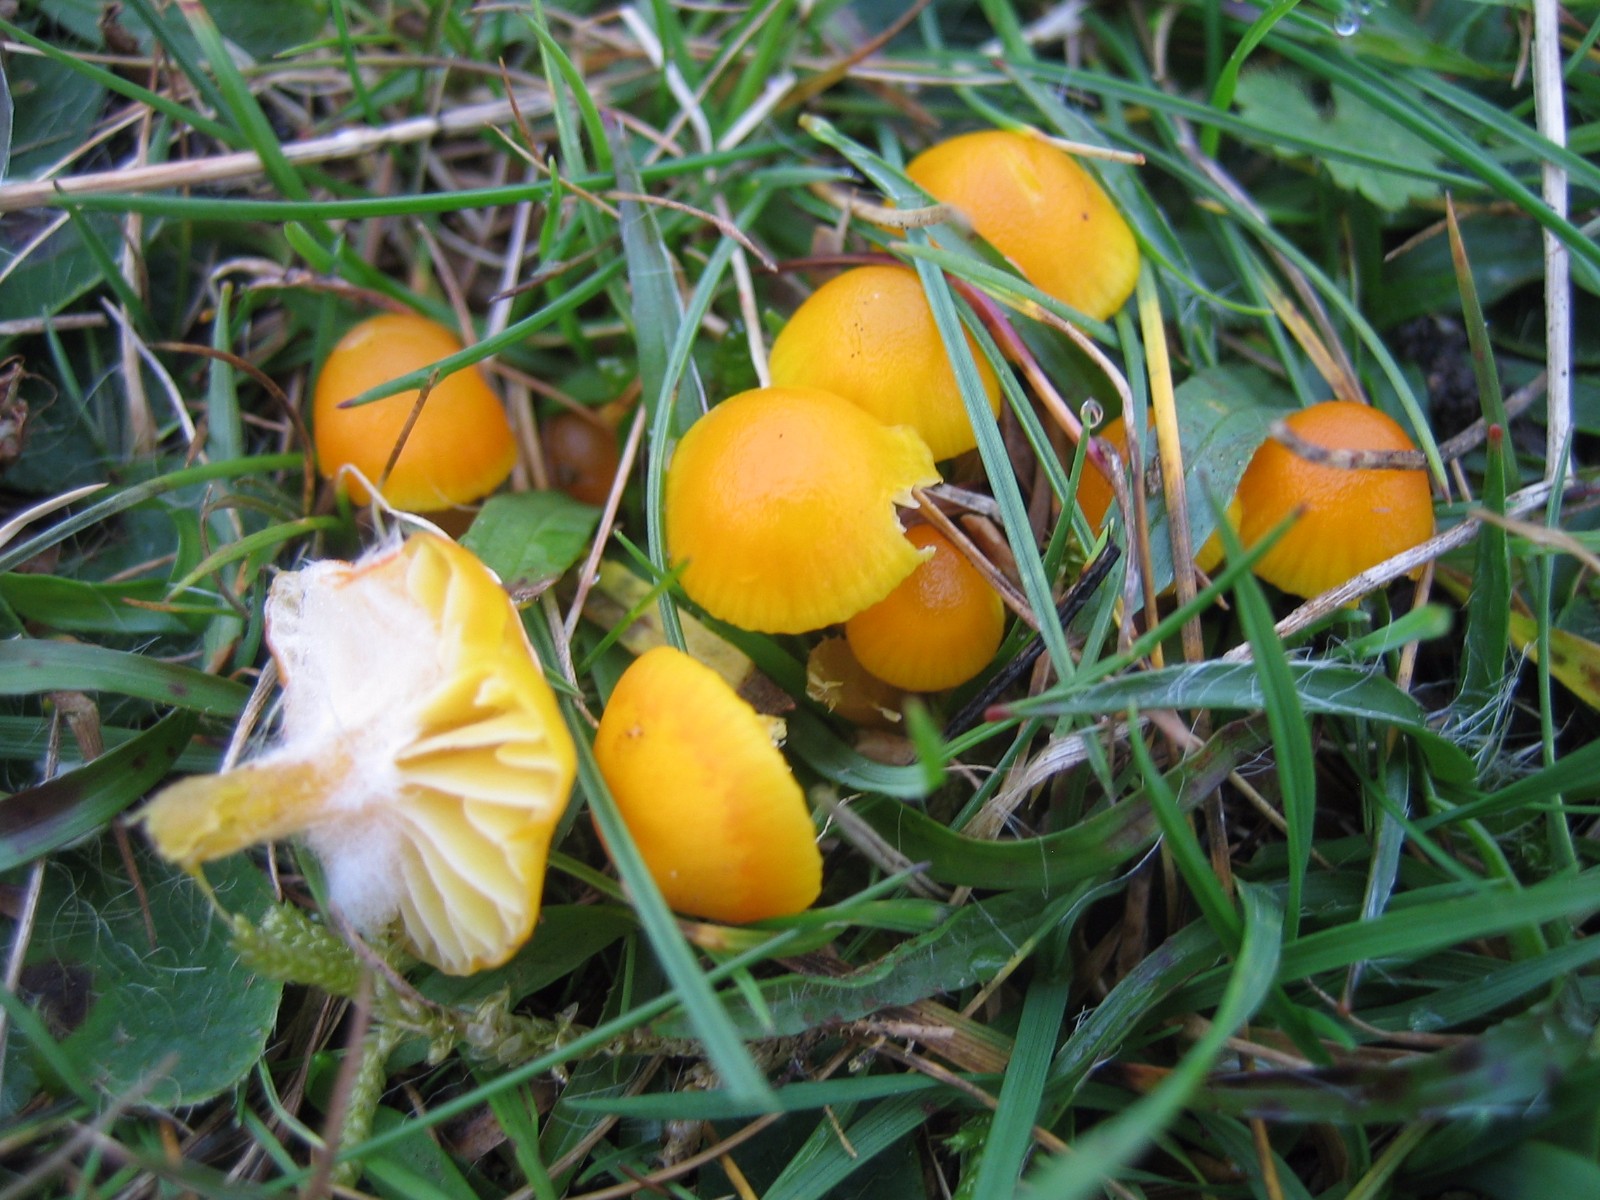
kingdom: Fungi
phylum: Basidiomycota
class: Agaricomycetes
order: Agaricales
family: Hygrophoraceae
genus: Hygrocybe
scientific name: Hygrocybe ceracea
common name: voksgul vokshat
